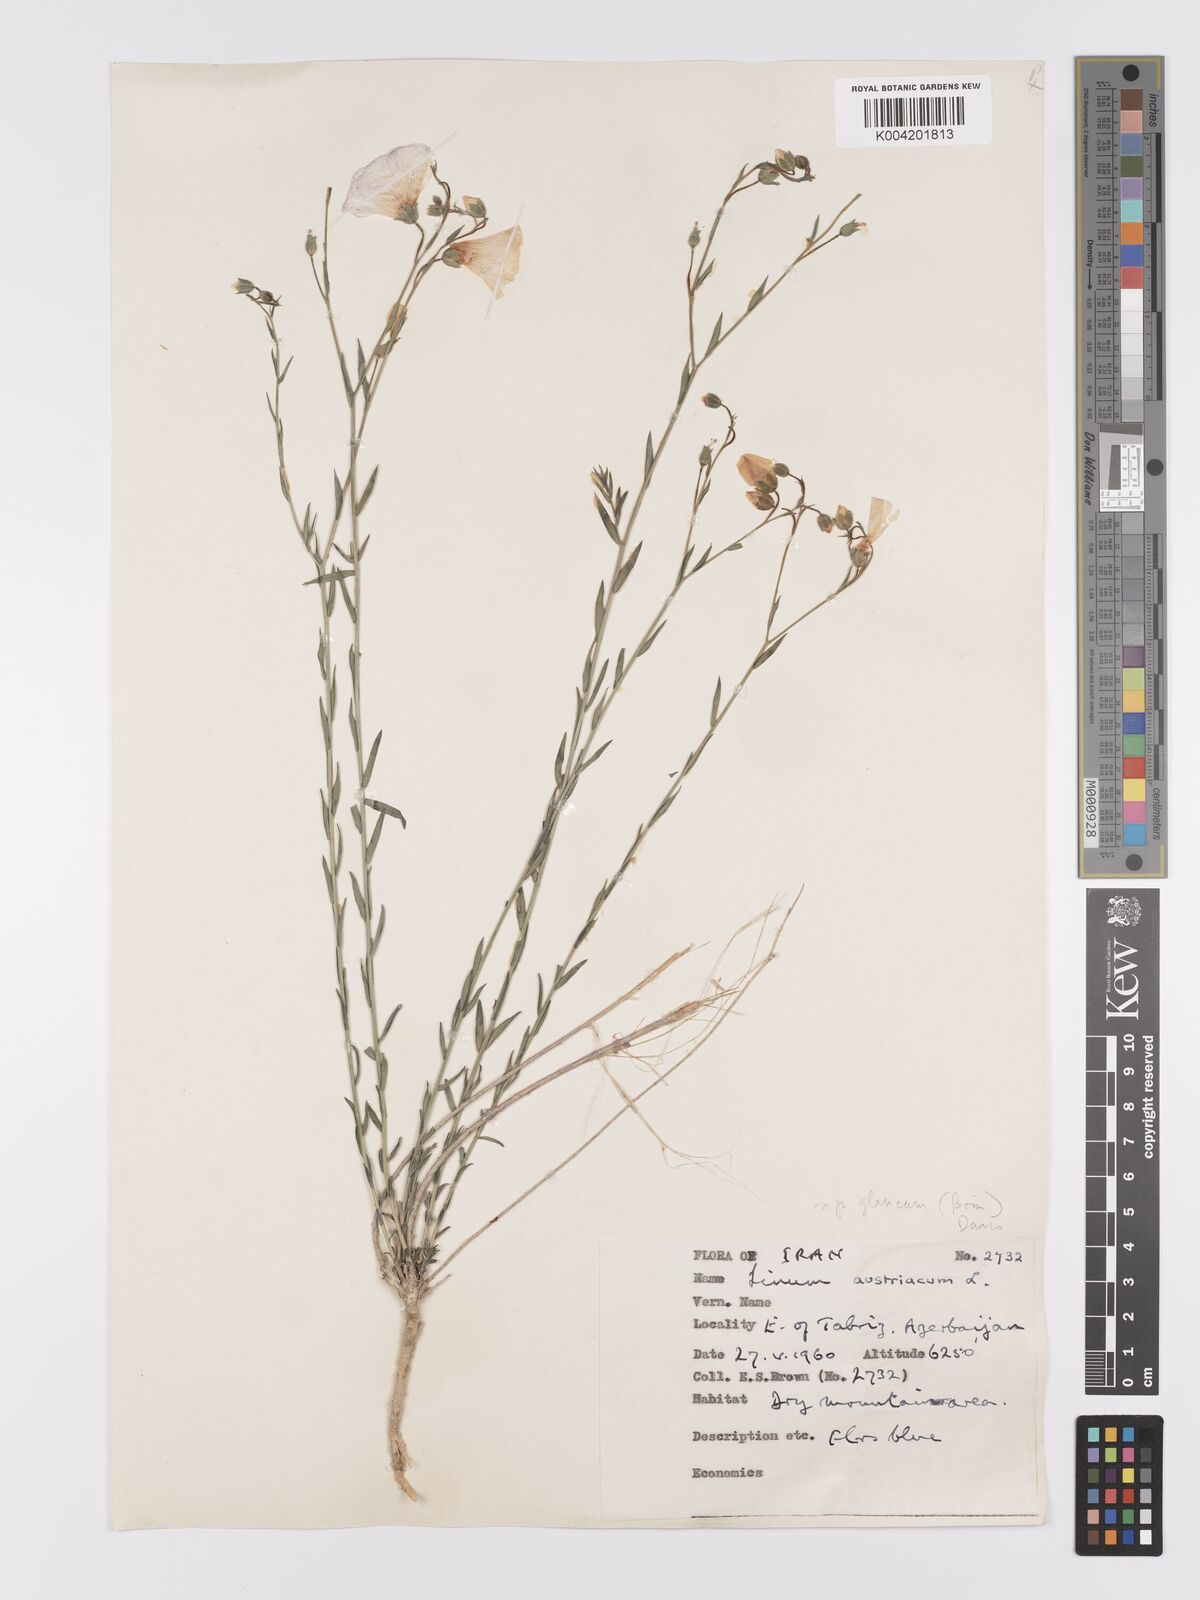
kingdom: Plantae
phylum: Tracheophyta
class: Magnoliopsida
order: Malpighiales
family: Linaceae
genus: Linum
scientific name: Linum
